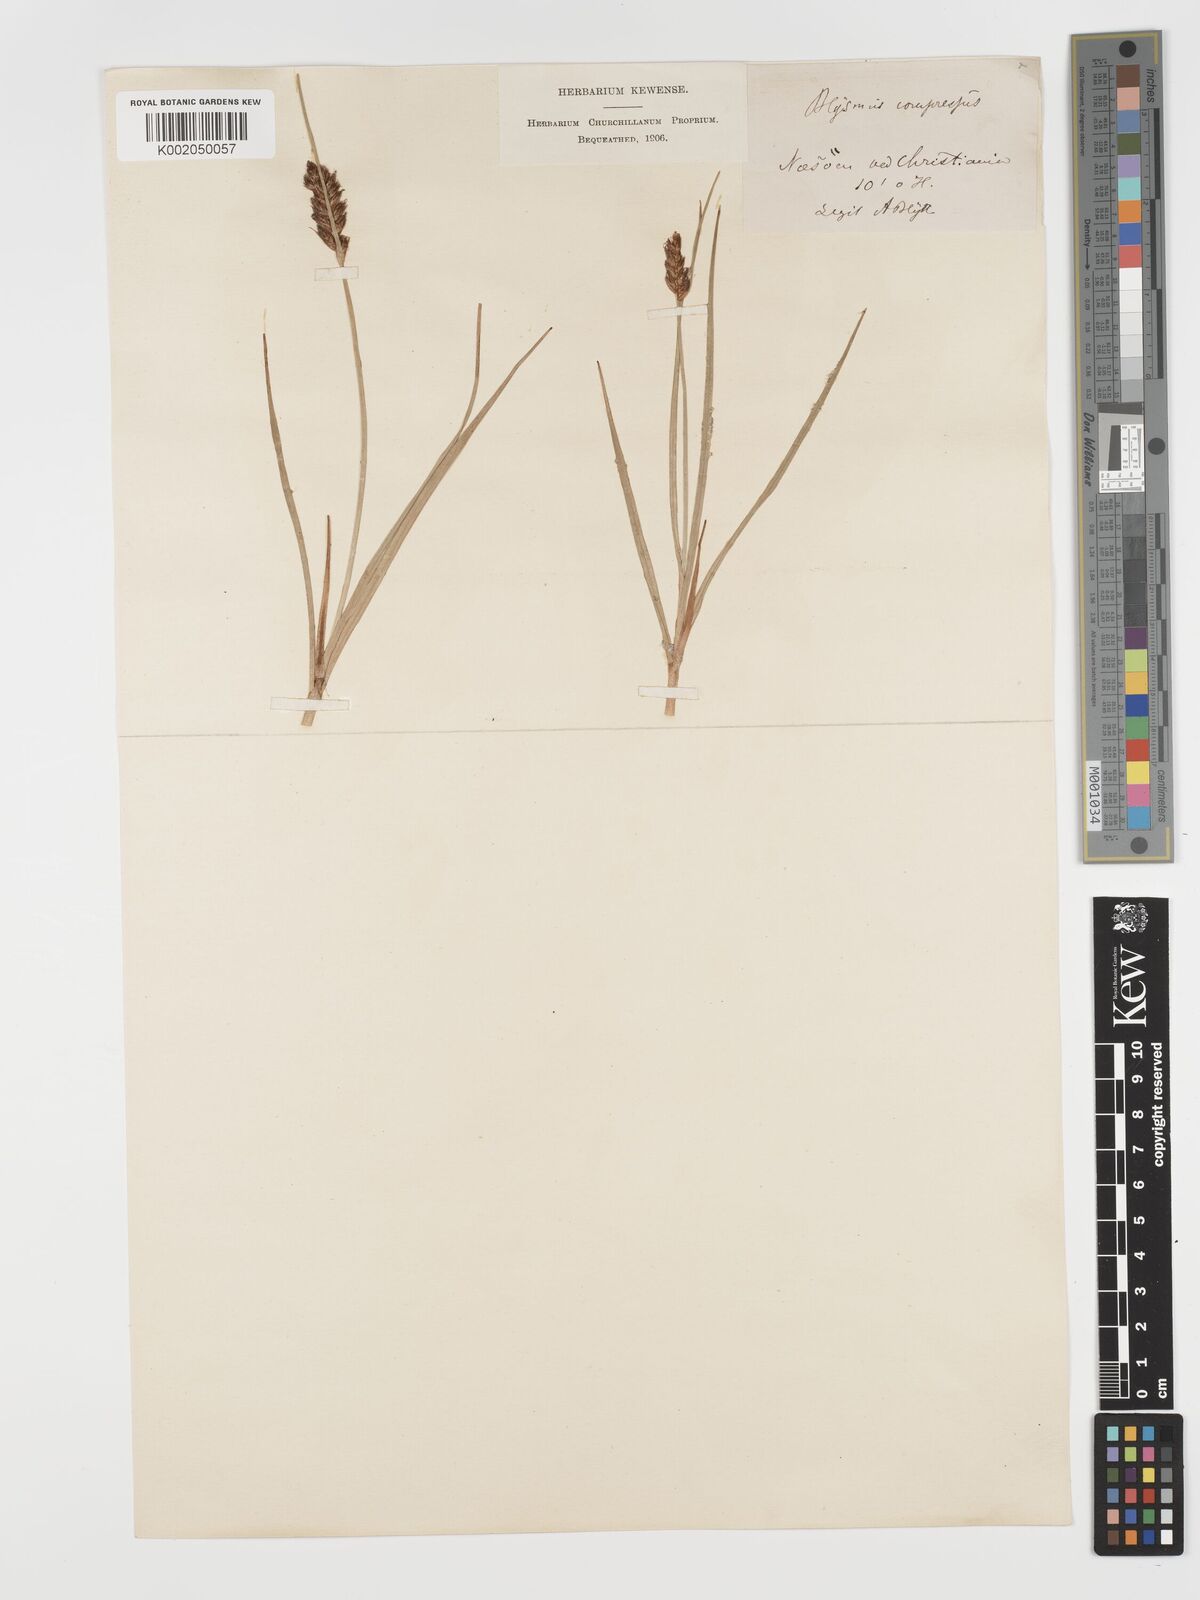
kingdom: Plantae
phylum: Tracheophyta
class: Liliopsida
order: Poales
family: Cyperaceae
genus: Blysmus
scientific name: Blysmus compressus
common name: Flat-sedge
